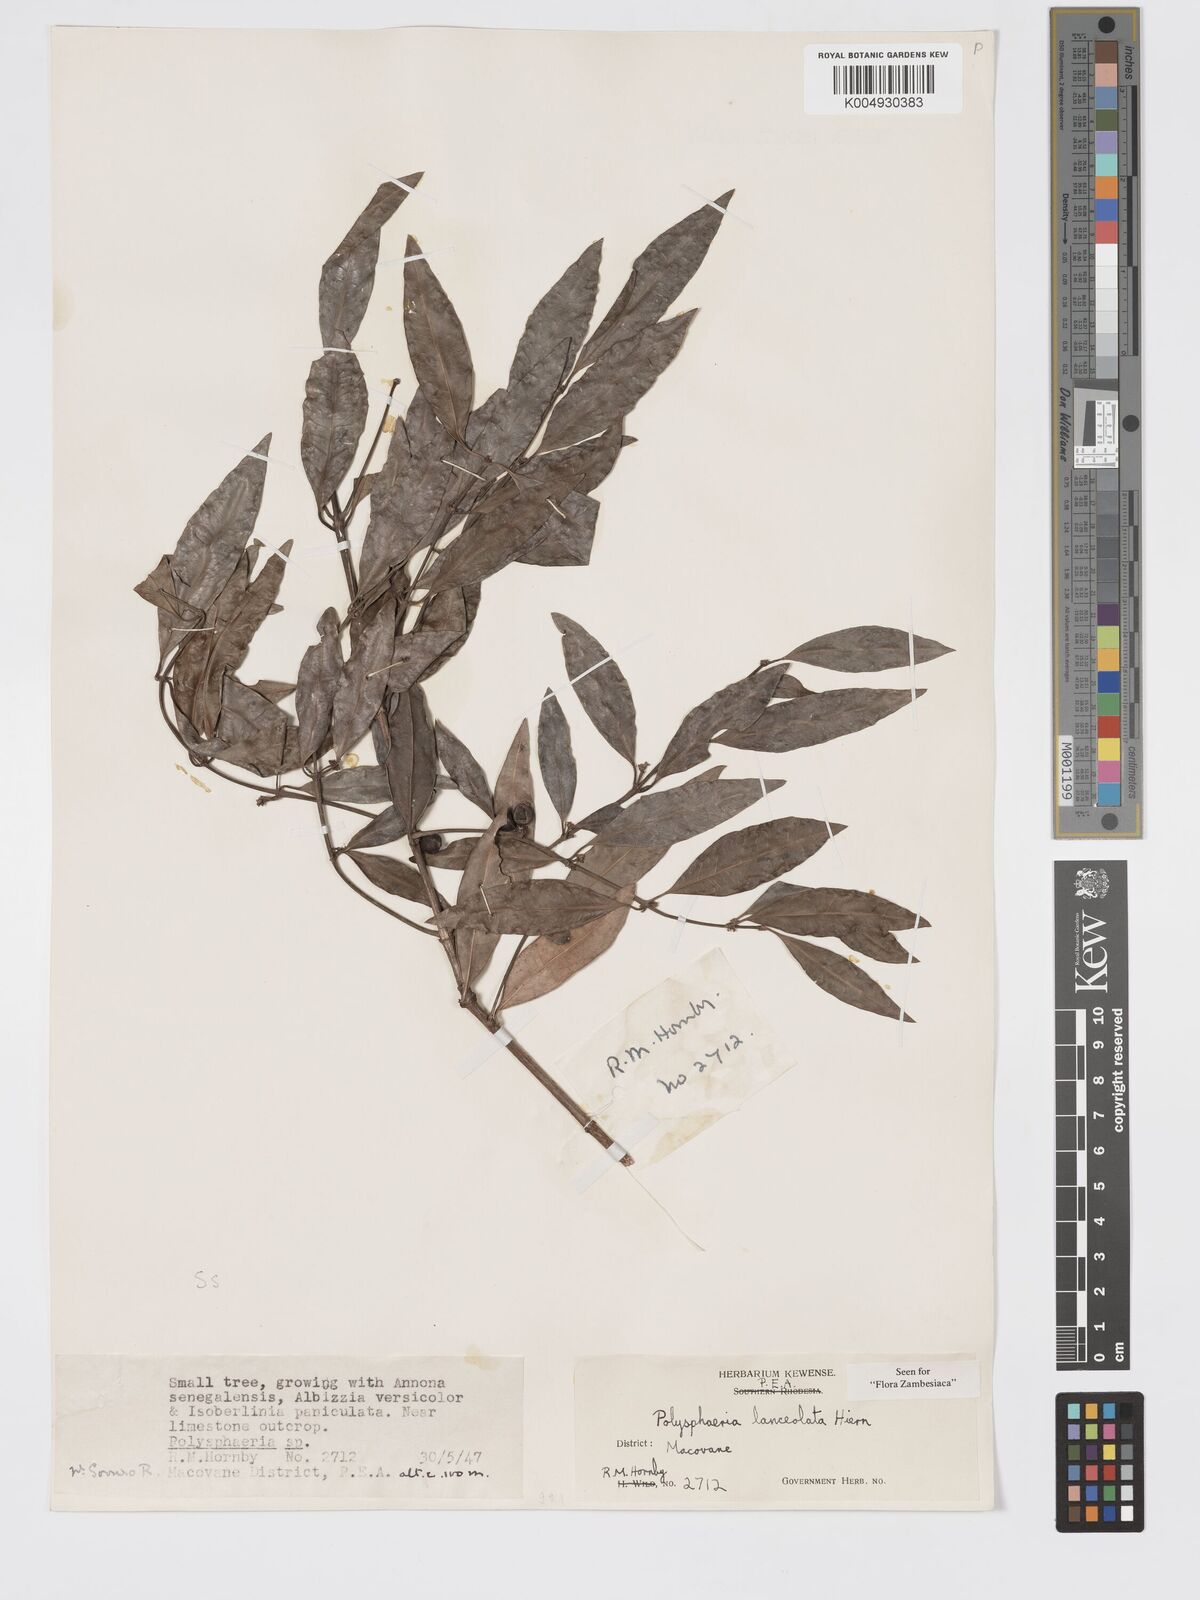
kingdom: Plantae
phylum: Tracheophyta
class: Magnoliopsida
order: Gentianales
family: Rubiaceae
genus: Polysphaeria
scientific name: Polysphaeria lanceolata
